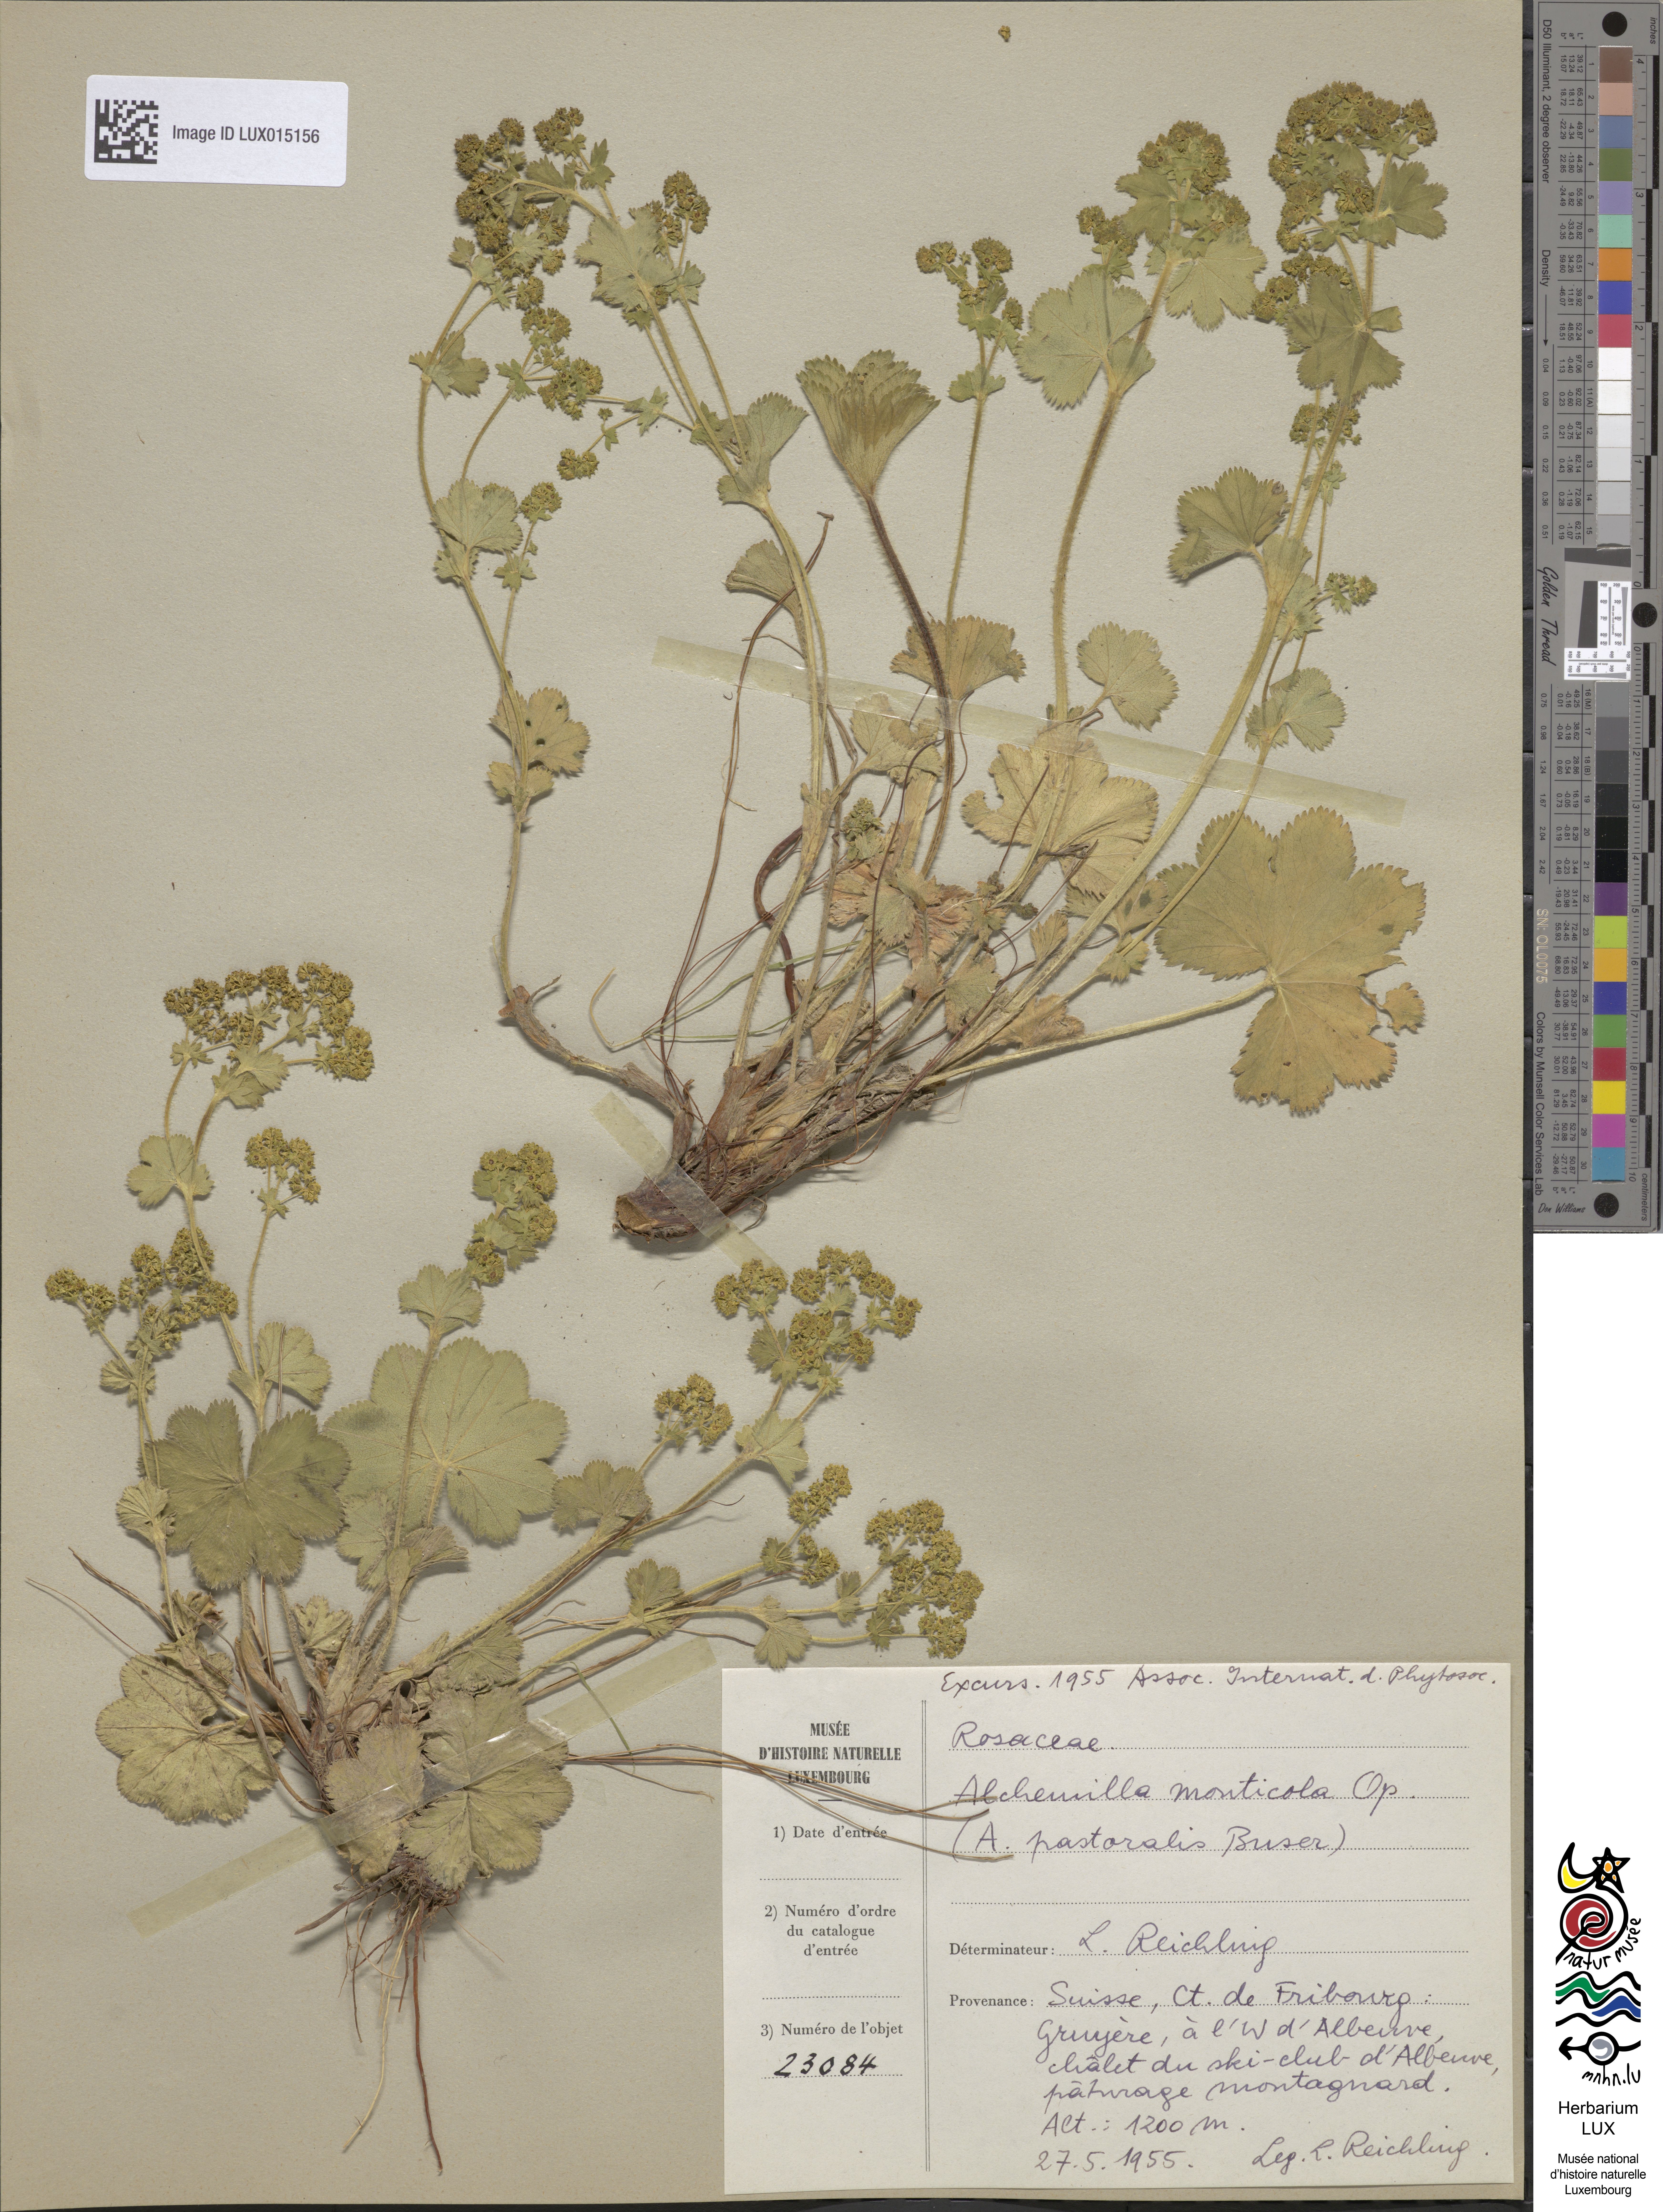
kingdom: Plantae
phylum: Tracheophyta
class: Magnoliopsida
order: Rosales
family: Rosaceae
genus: Alchemilla
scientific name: Alchemilla monticola
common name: Hairy lady's mantle
